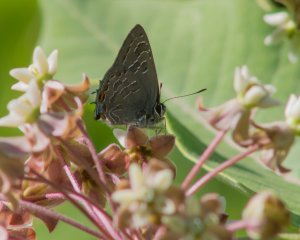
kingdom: Animalia
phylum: Arthropoda
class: Insecta
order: Lepidoptera
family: Lycaenidae
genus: Satyrium
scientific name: Satyrium liparops
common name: Striped Hairstreak
